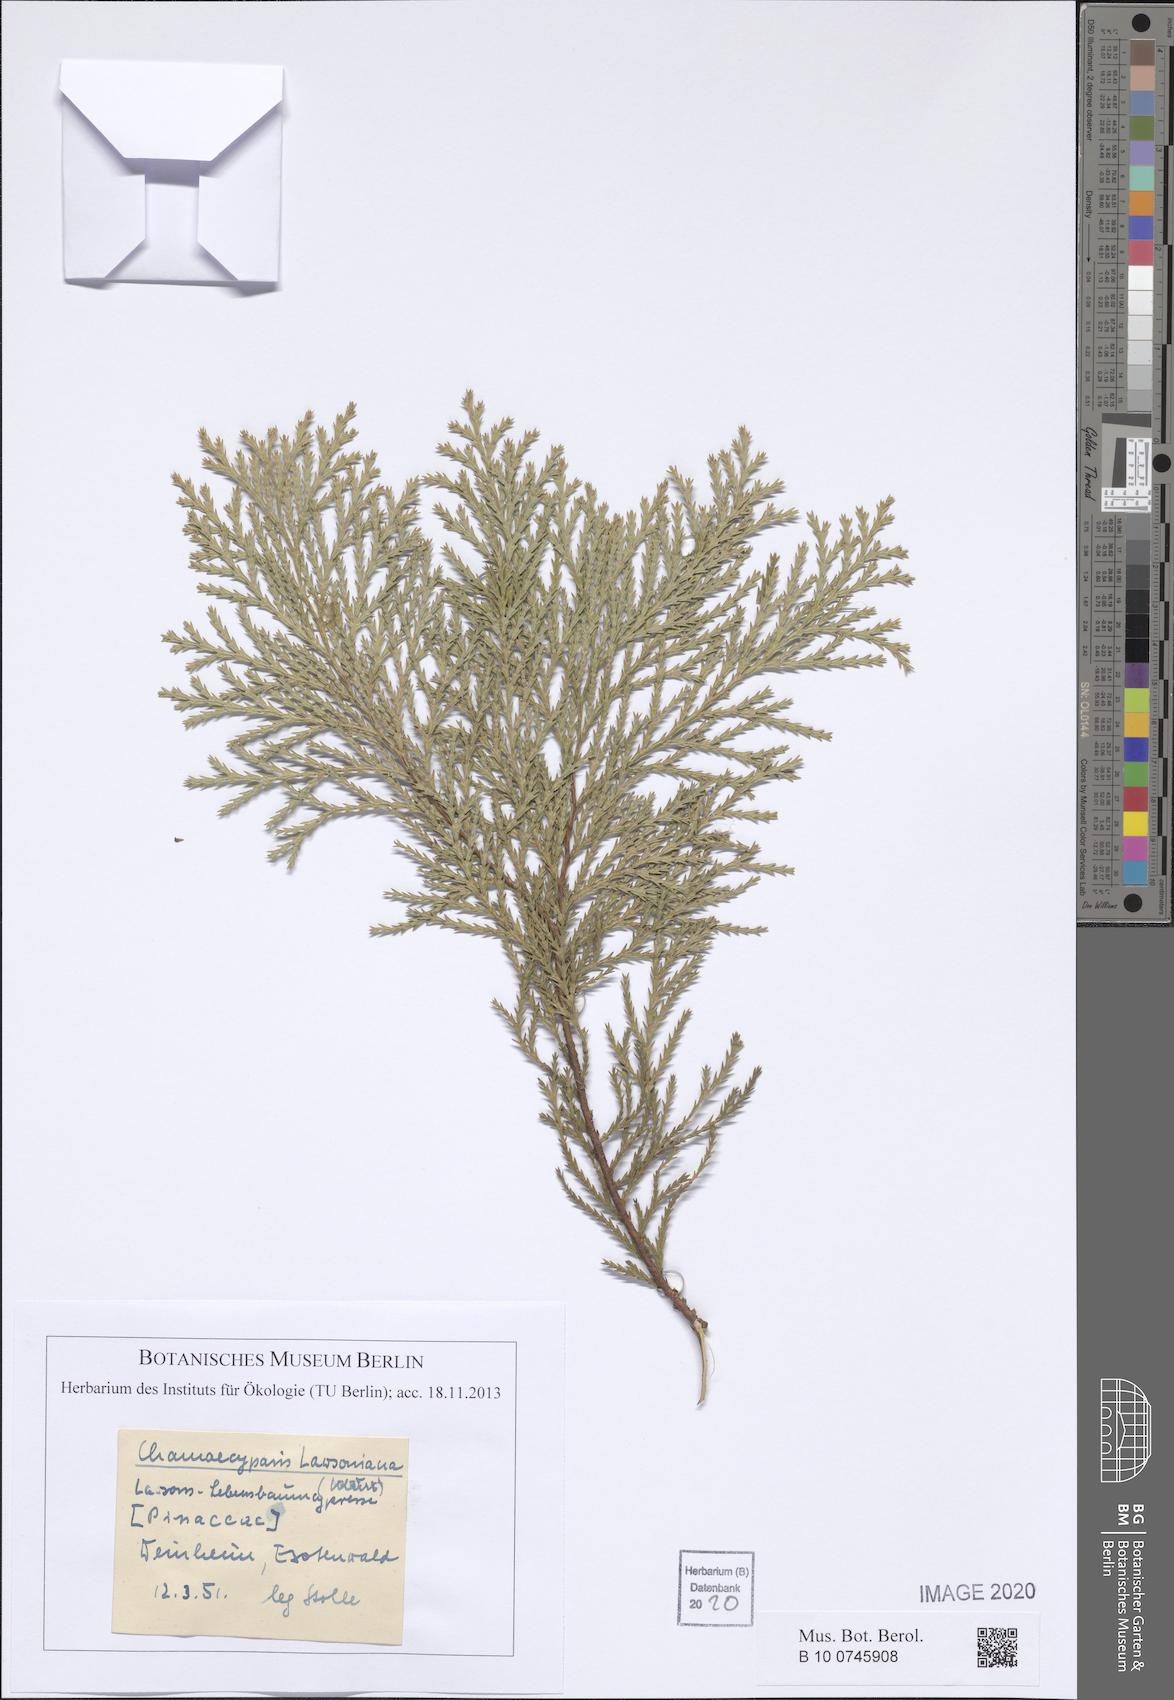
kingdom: Plantae
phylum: Tracheophyta
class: Pinopsida
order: Pinales
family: Cupressaceae
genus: Chamaecyparis
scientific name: Chamaecyparis lawsoniana
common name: Lawson's cypress
